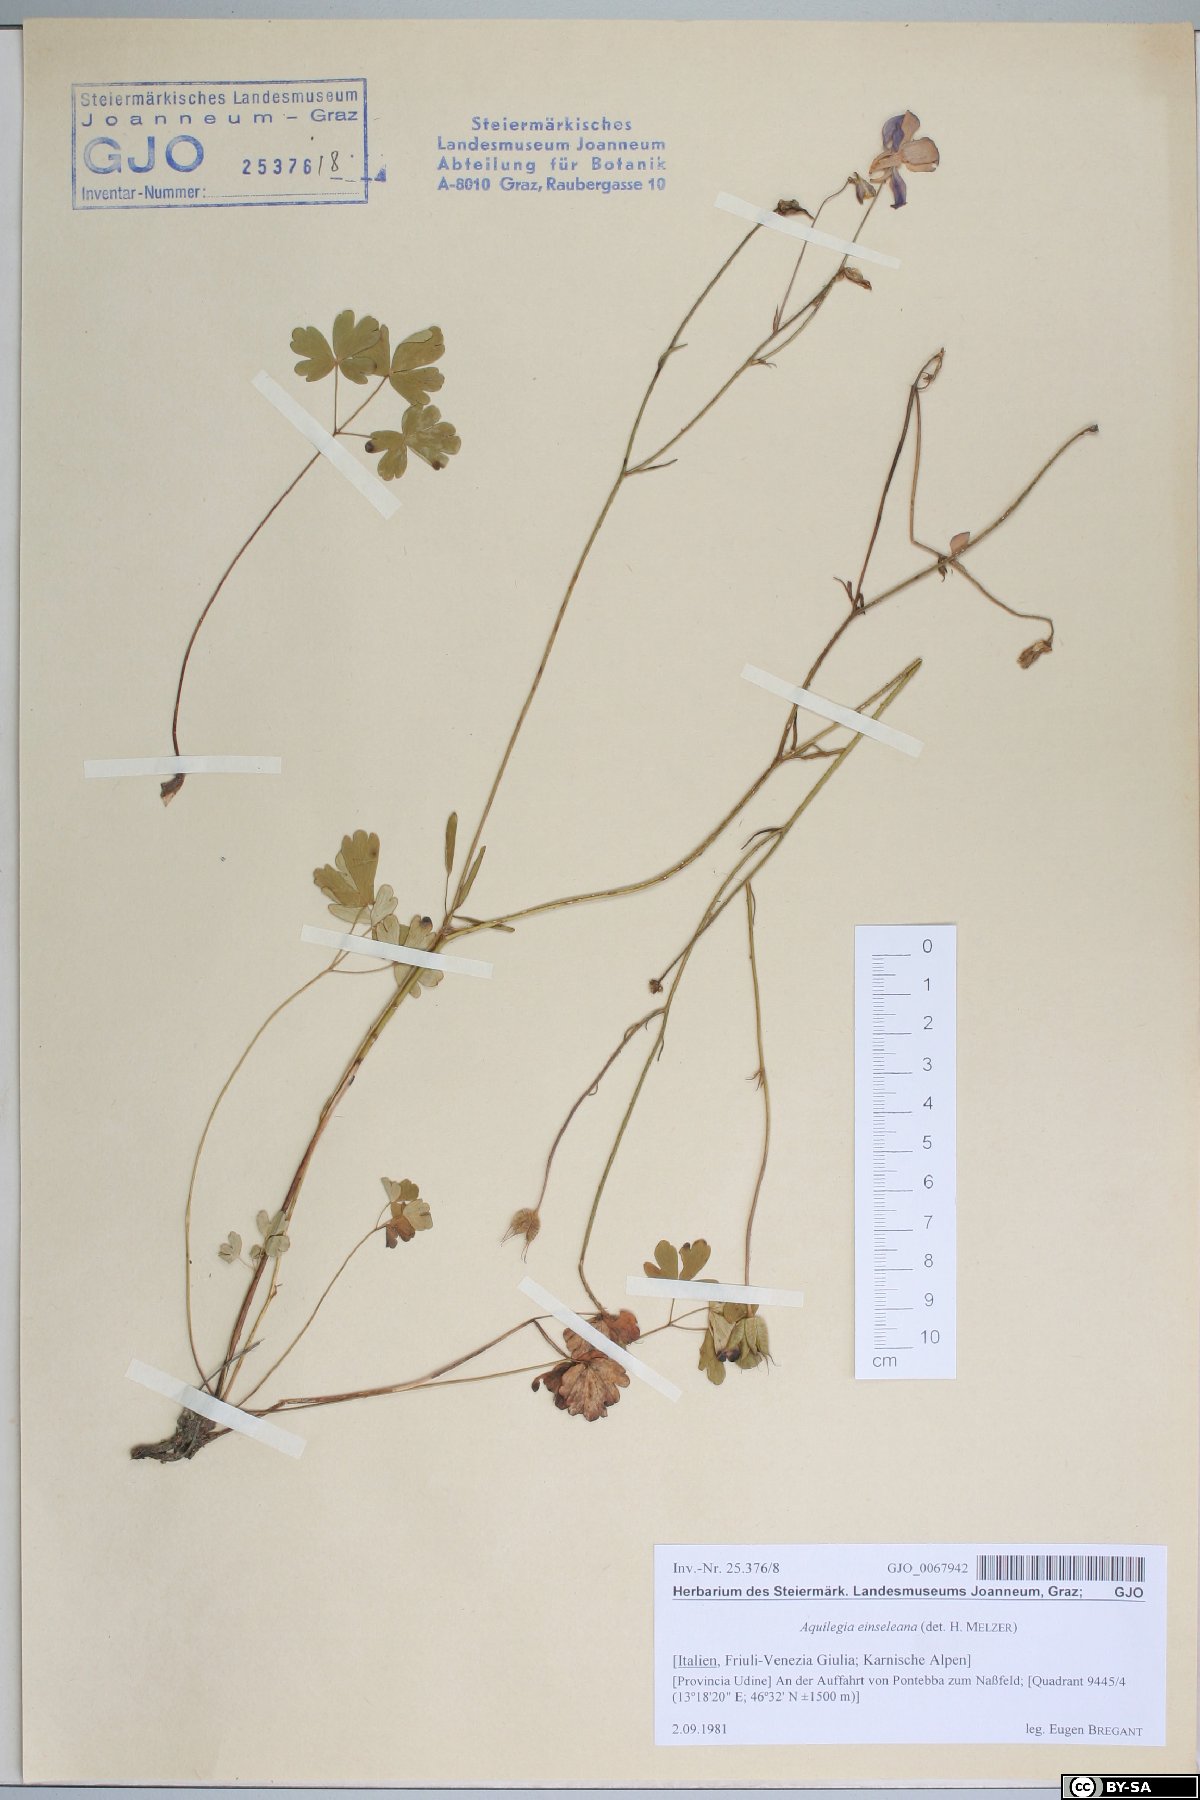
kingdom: Plantae
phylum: Tracheophyta
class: Magnoliopsida
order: Ranunculales
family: Ranunculaceae
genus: Aquilegia
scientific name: Aquilegia einseleana
